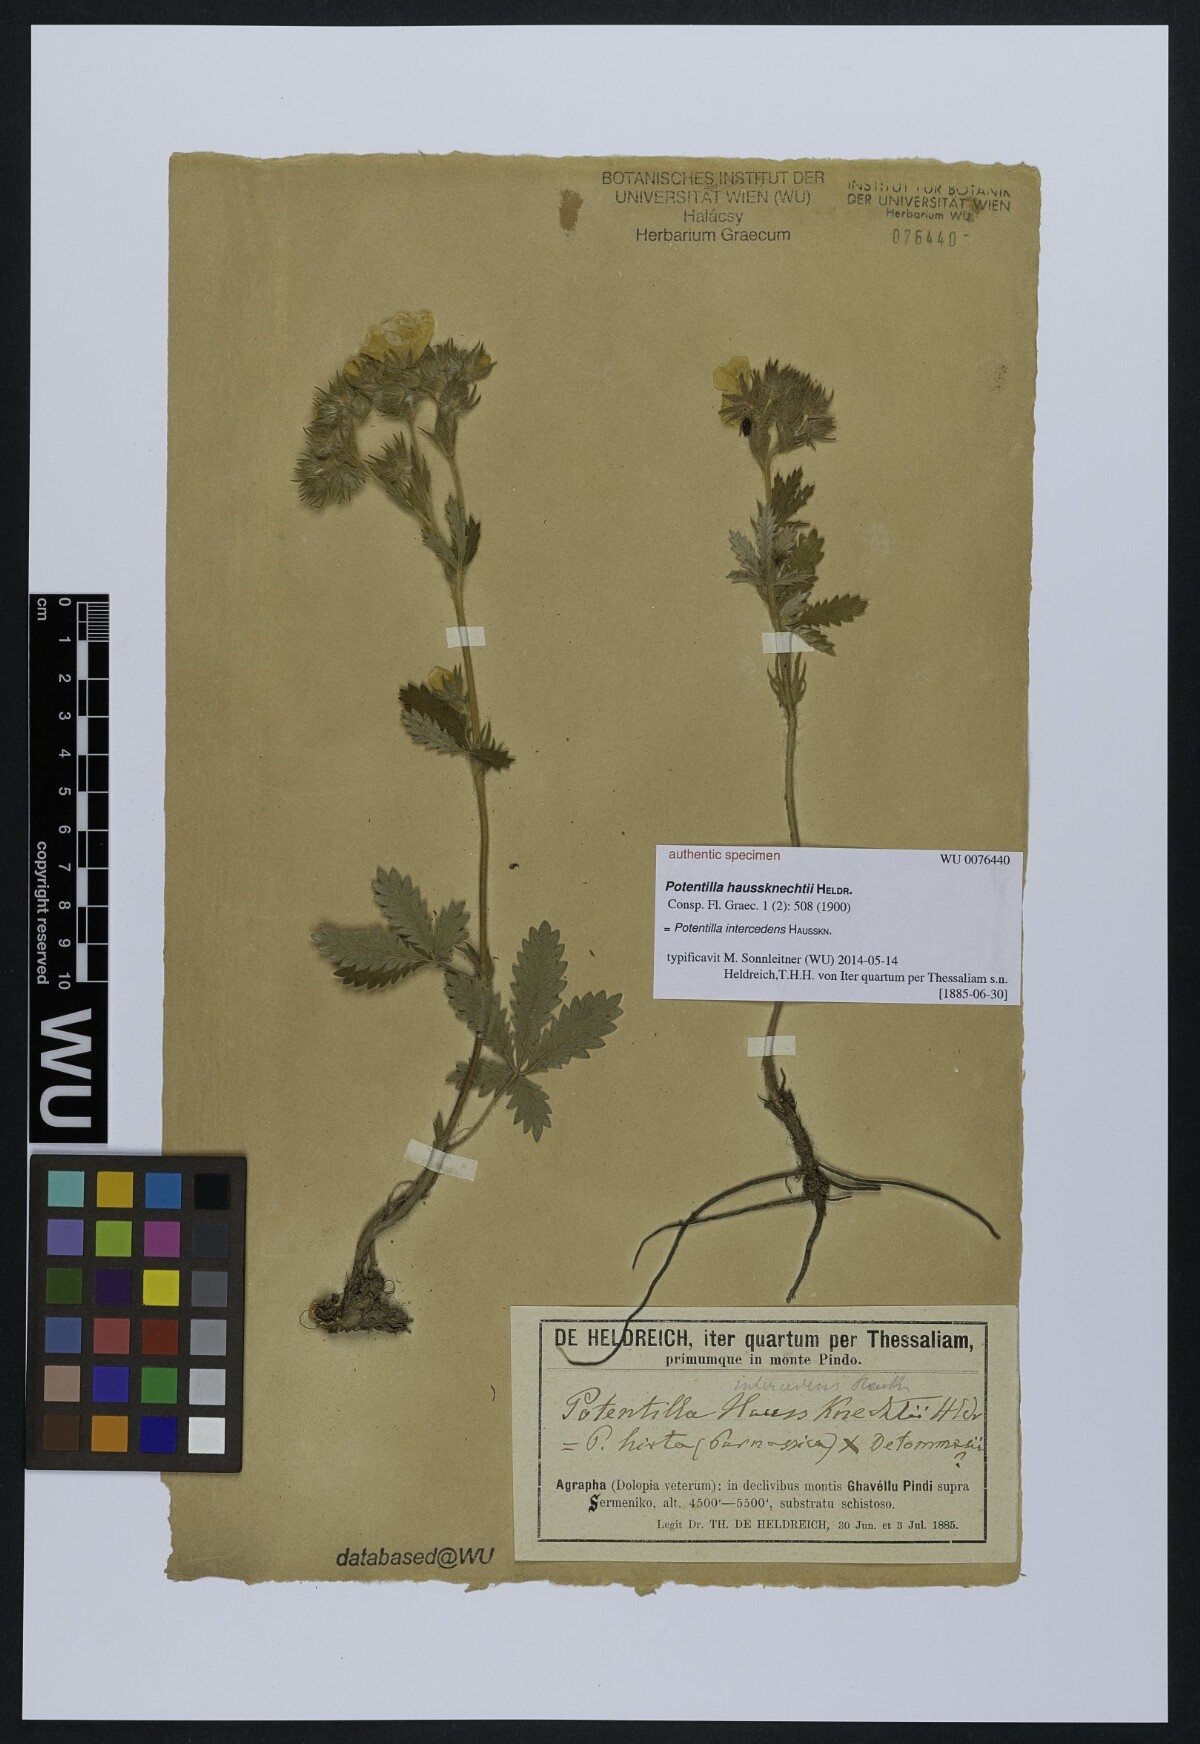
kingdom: Plantae
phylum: Tracheophyta
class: Magnoliopsida
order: Rosales
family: Rosaceae
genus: Potentilla
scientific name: Potentilla
